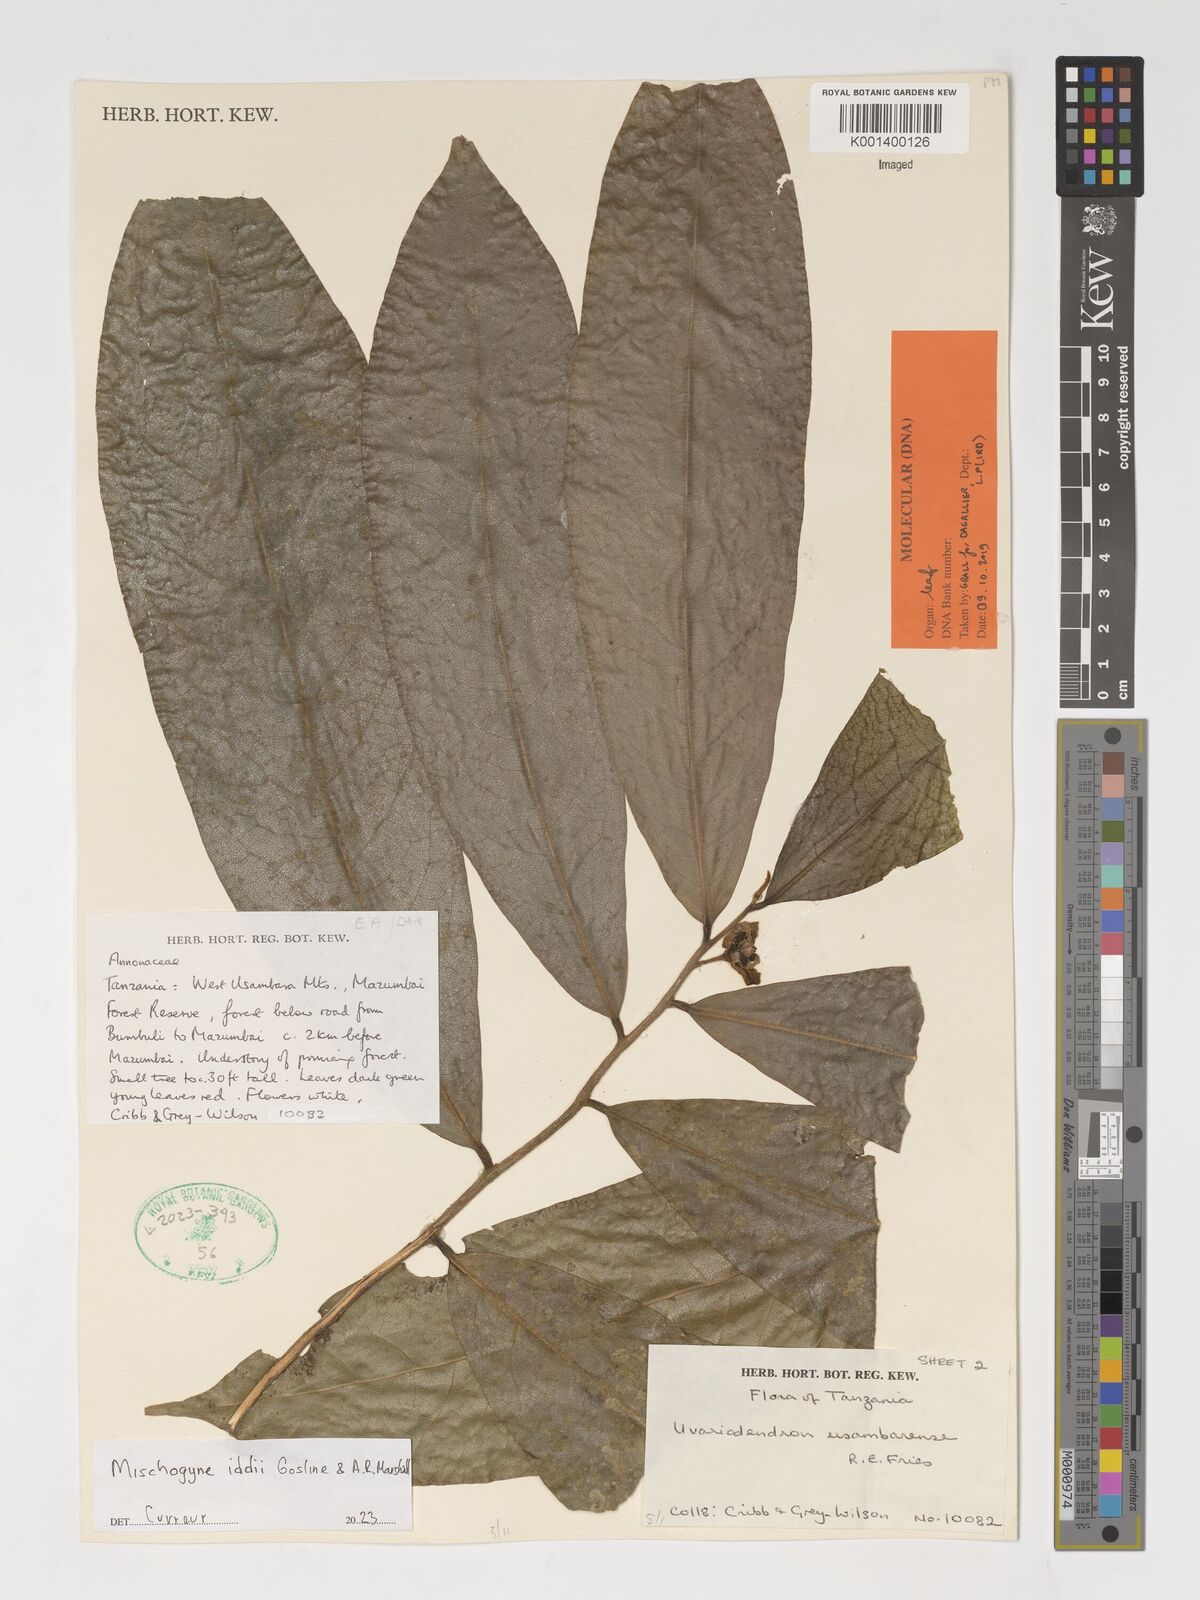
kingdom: Plantae
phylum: Tracheophyta
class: Magnoliopsida
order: Magnoliales
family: Annonaceae
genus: Mischogyne
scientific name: Mischogyne iddii
